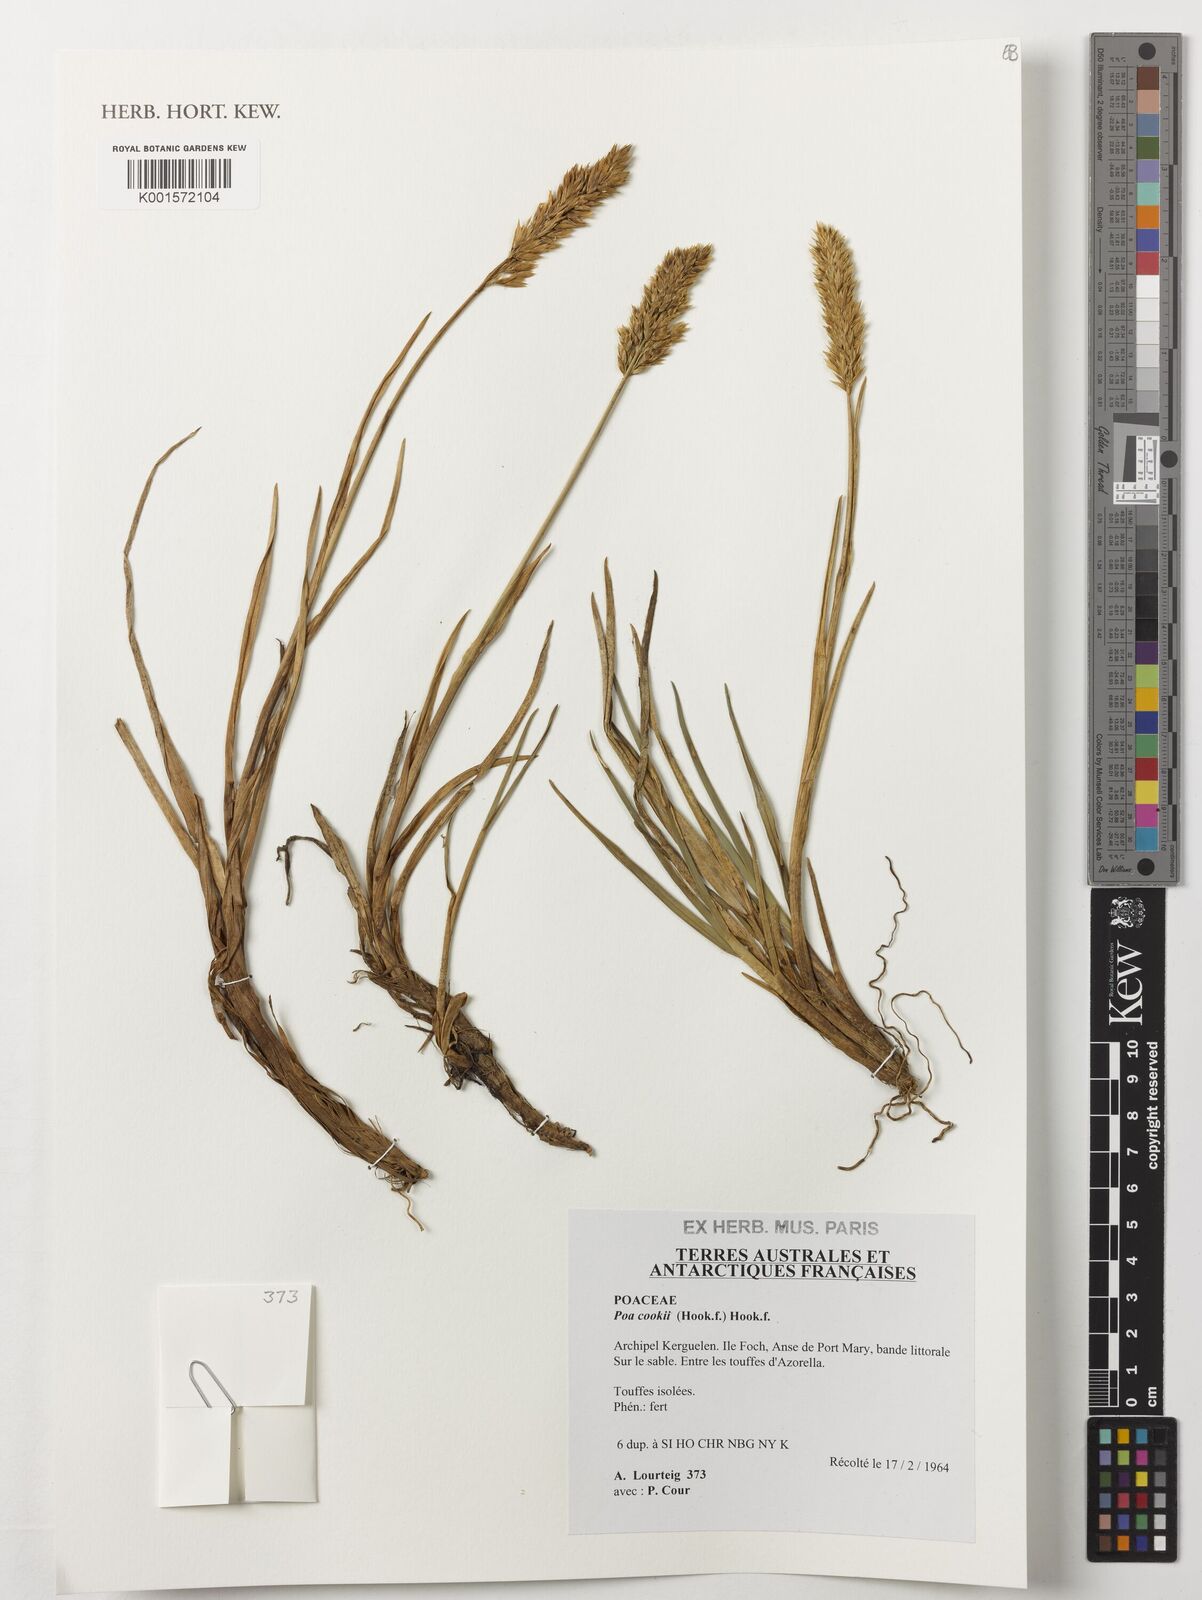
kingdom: Plantae
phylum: Tracheophyta
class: Liliopsida
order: Poales
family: Poaceae
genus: Poa
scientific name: Poa cookii
